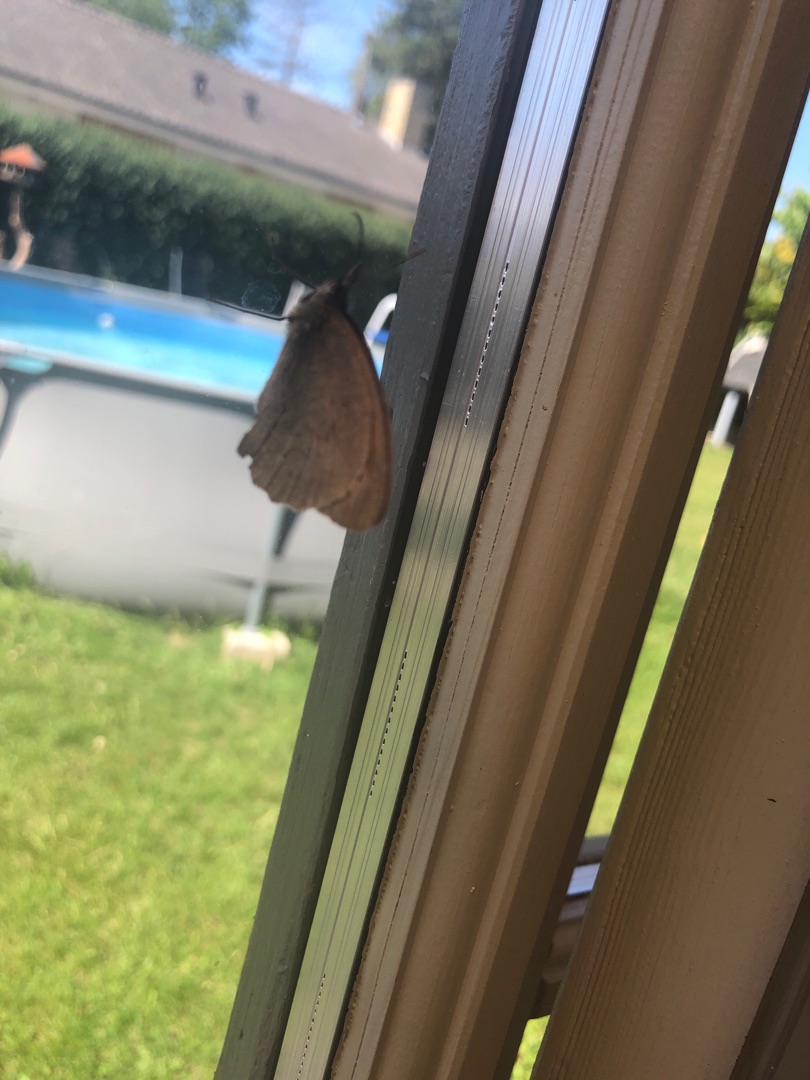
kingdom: Animalia
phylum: Arthropoda
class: Insecta
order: Lepidoptera
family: Nymphalidae
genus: Maniola
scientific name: Maniola jurtina
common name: Græsrandøje
